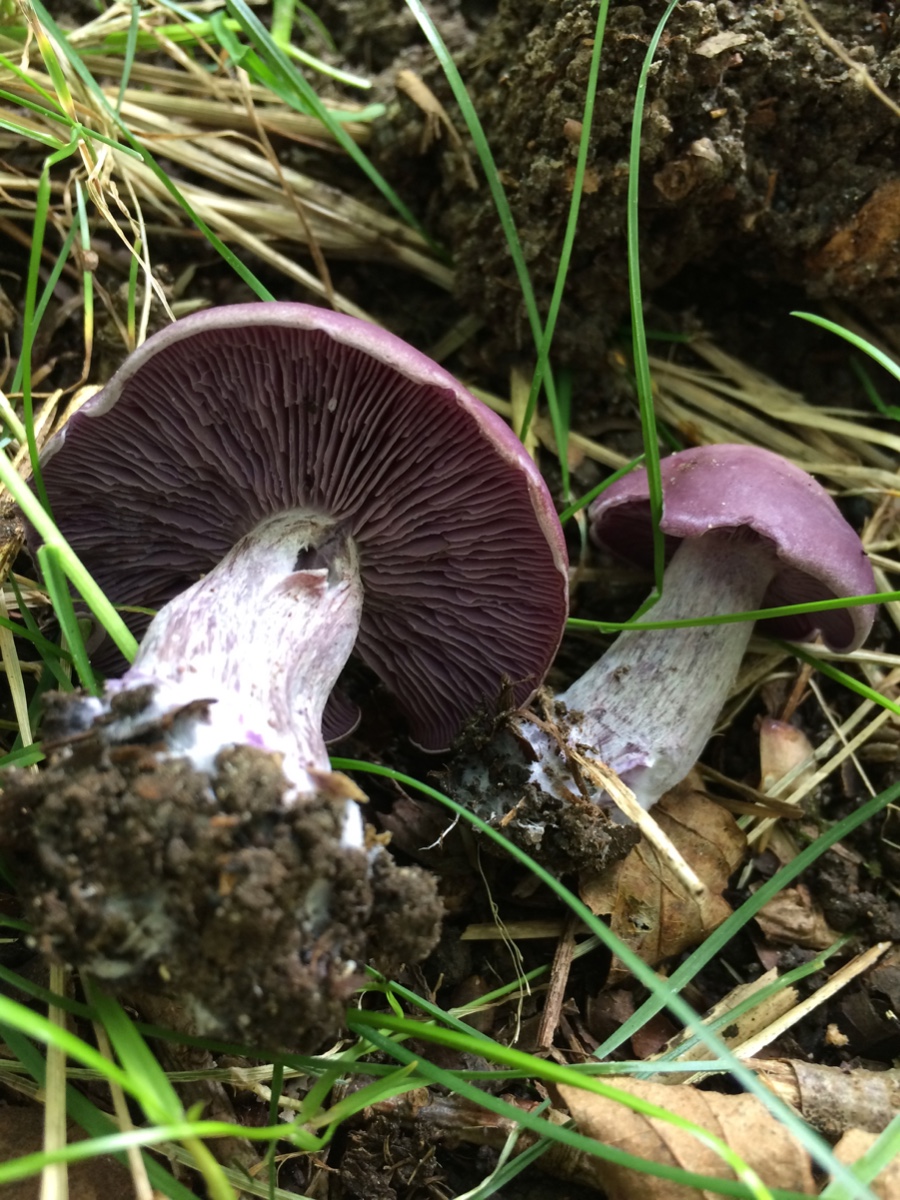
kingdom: Fungi
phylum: Basidiomycota
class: Agaricomycetes
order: Agaricales
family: Tricholomataceae
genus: Lepista
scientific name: Lepista nuda
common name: violet hekseringshat
